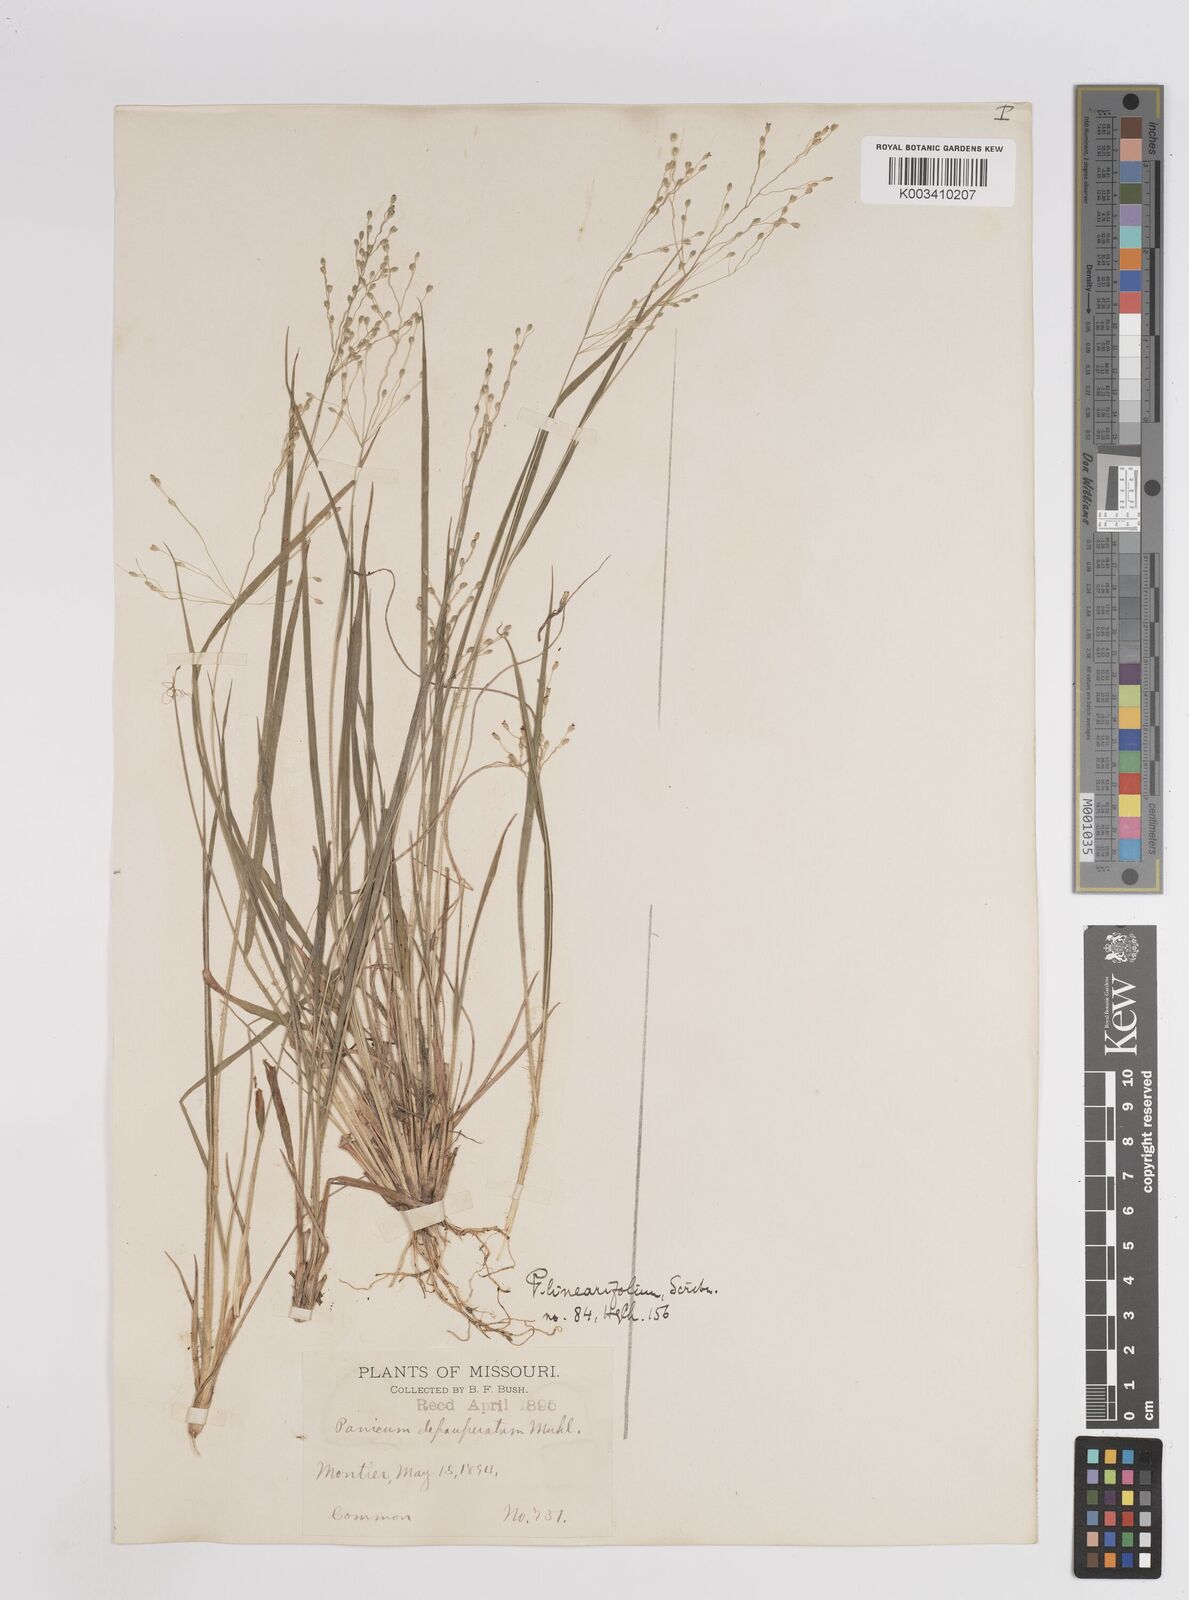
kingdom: Plantae
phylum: Tracheophyta
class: Liliopsida
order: Poales
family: Poaceae
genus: Dichanthelium
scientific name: Dichanthelium linearifolium
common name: Linear-leaved panicgrass
